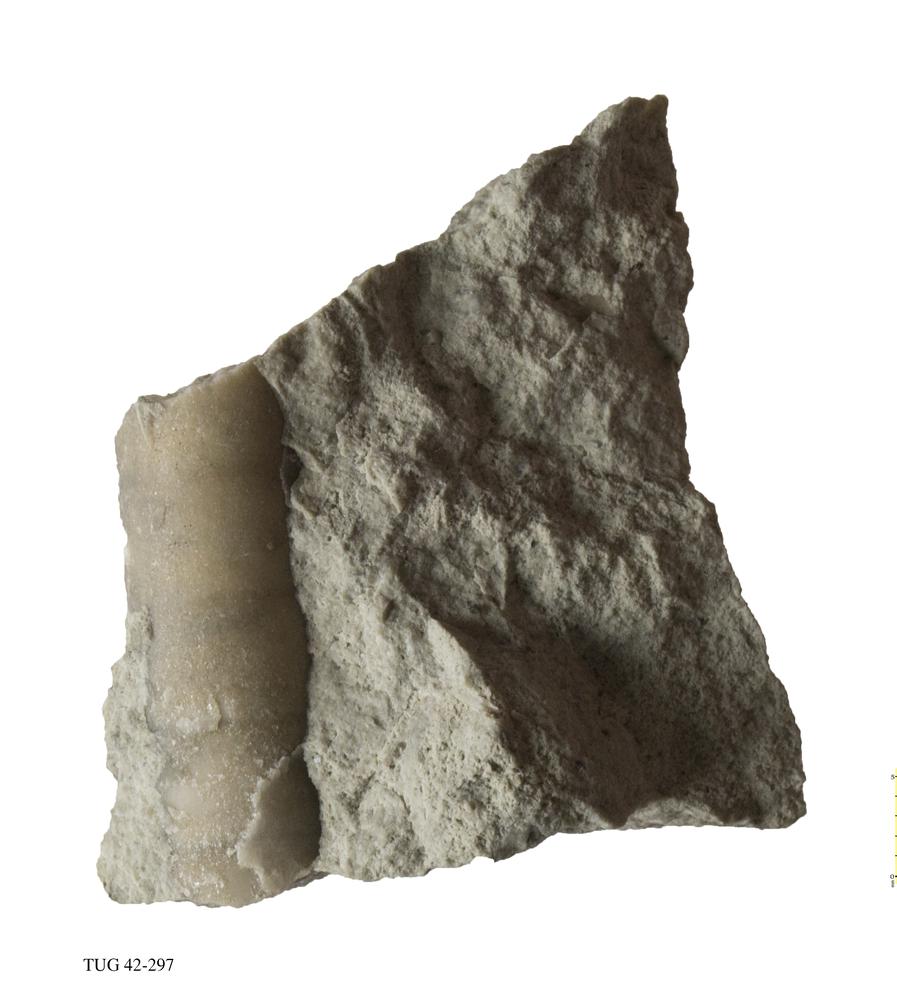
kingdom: Animalia
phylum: Mollusca
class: Cephalopoda
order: Orthocerida
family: Orthoceratidae
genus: Orthoceras
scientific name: Orthoceras regulare
